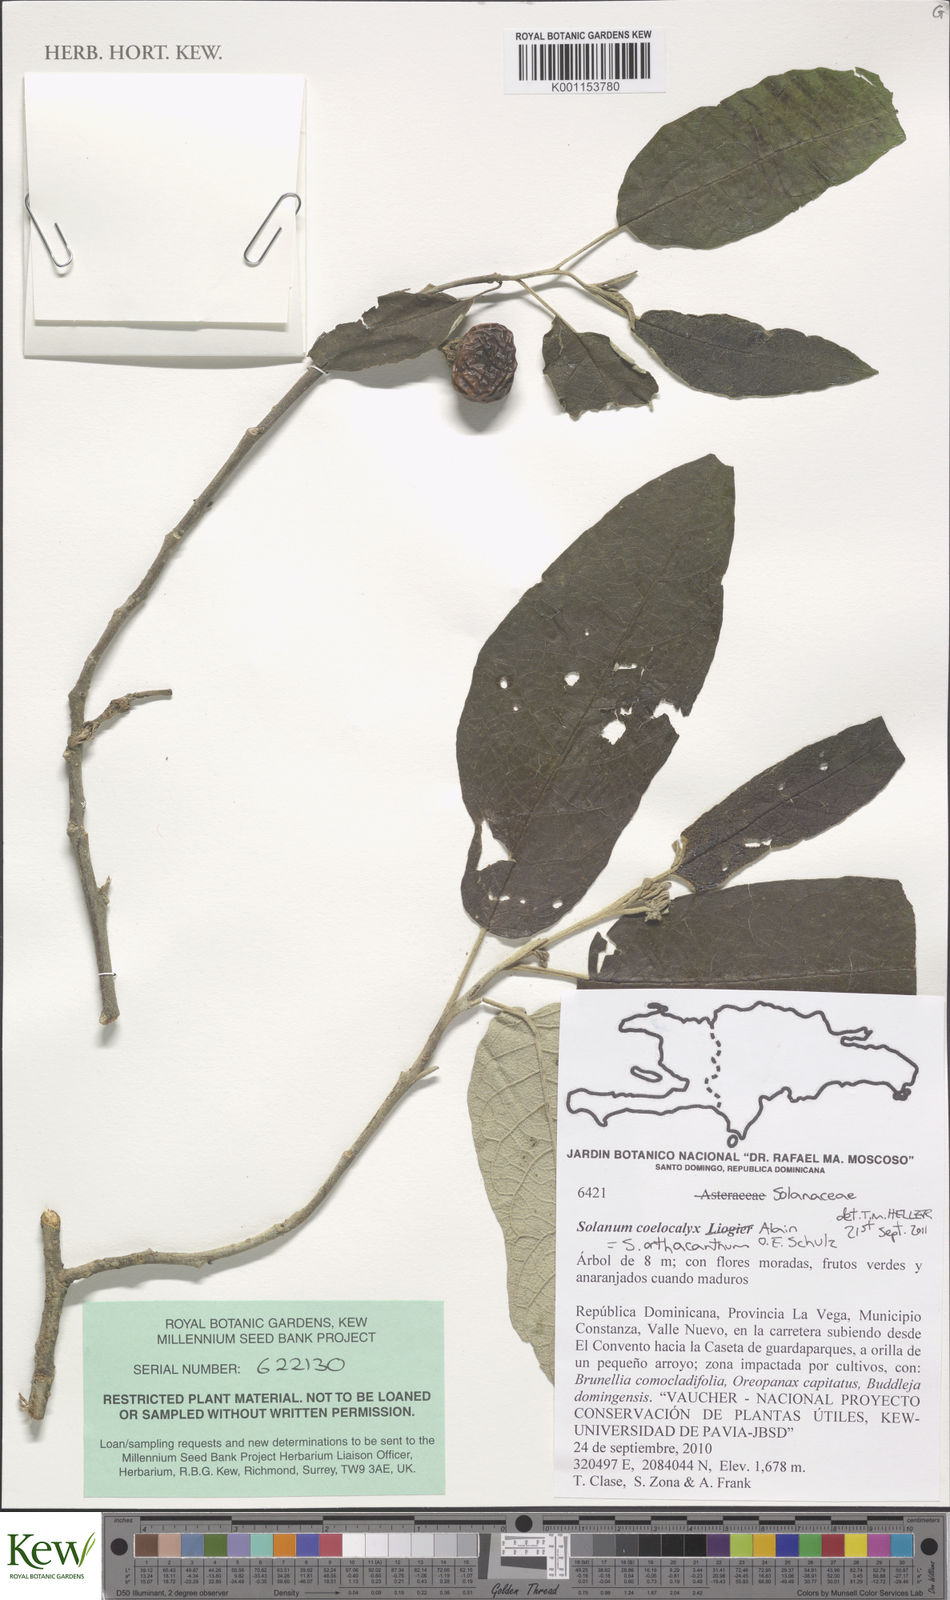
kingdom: Plantae
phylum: Tracheophyta
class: Magnoliopsida
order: Solanales
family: Solanaceae
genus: Solanum
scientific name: Solanum orthacanthum
